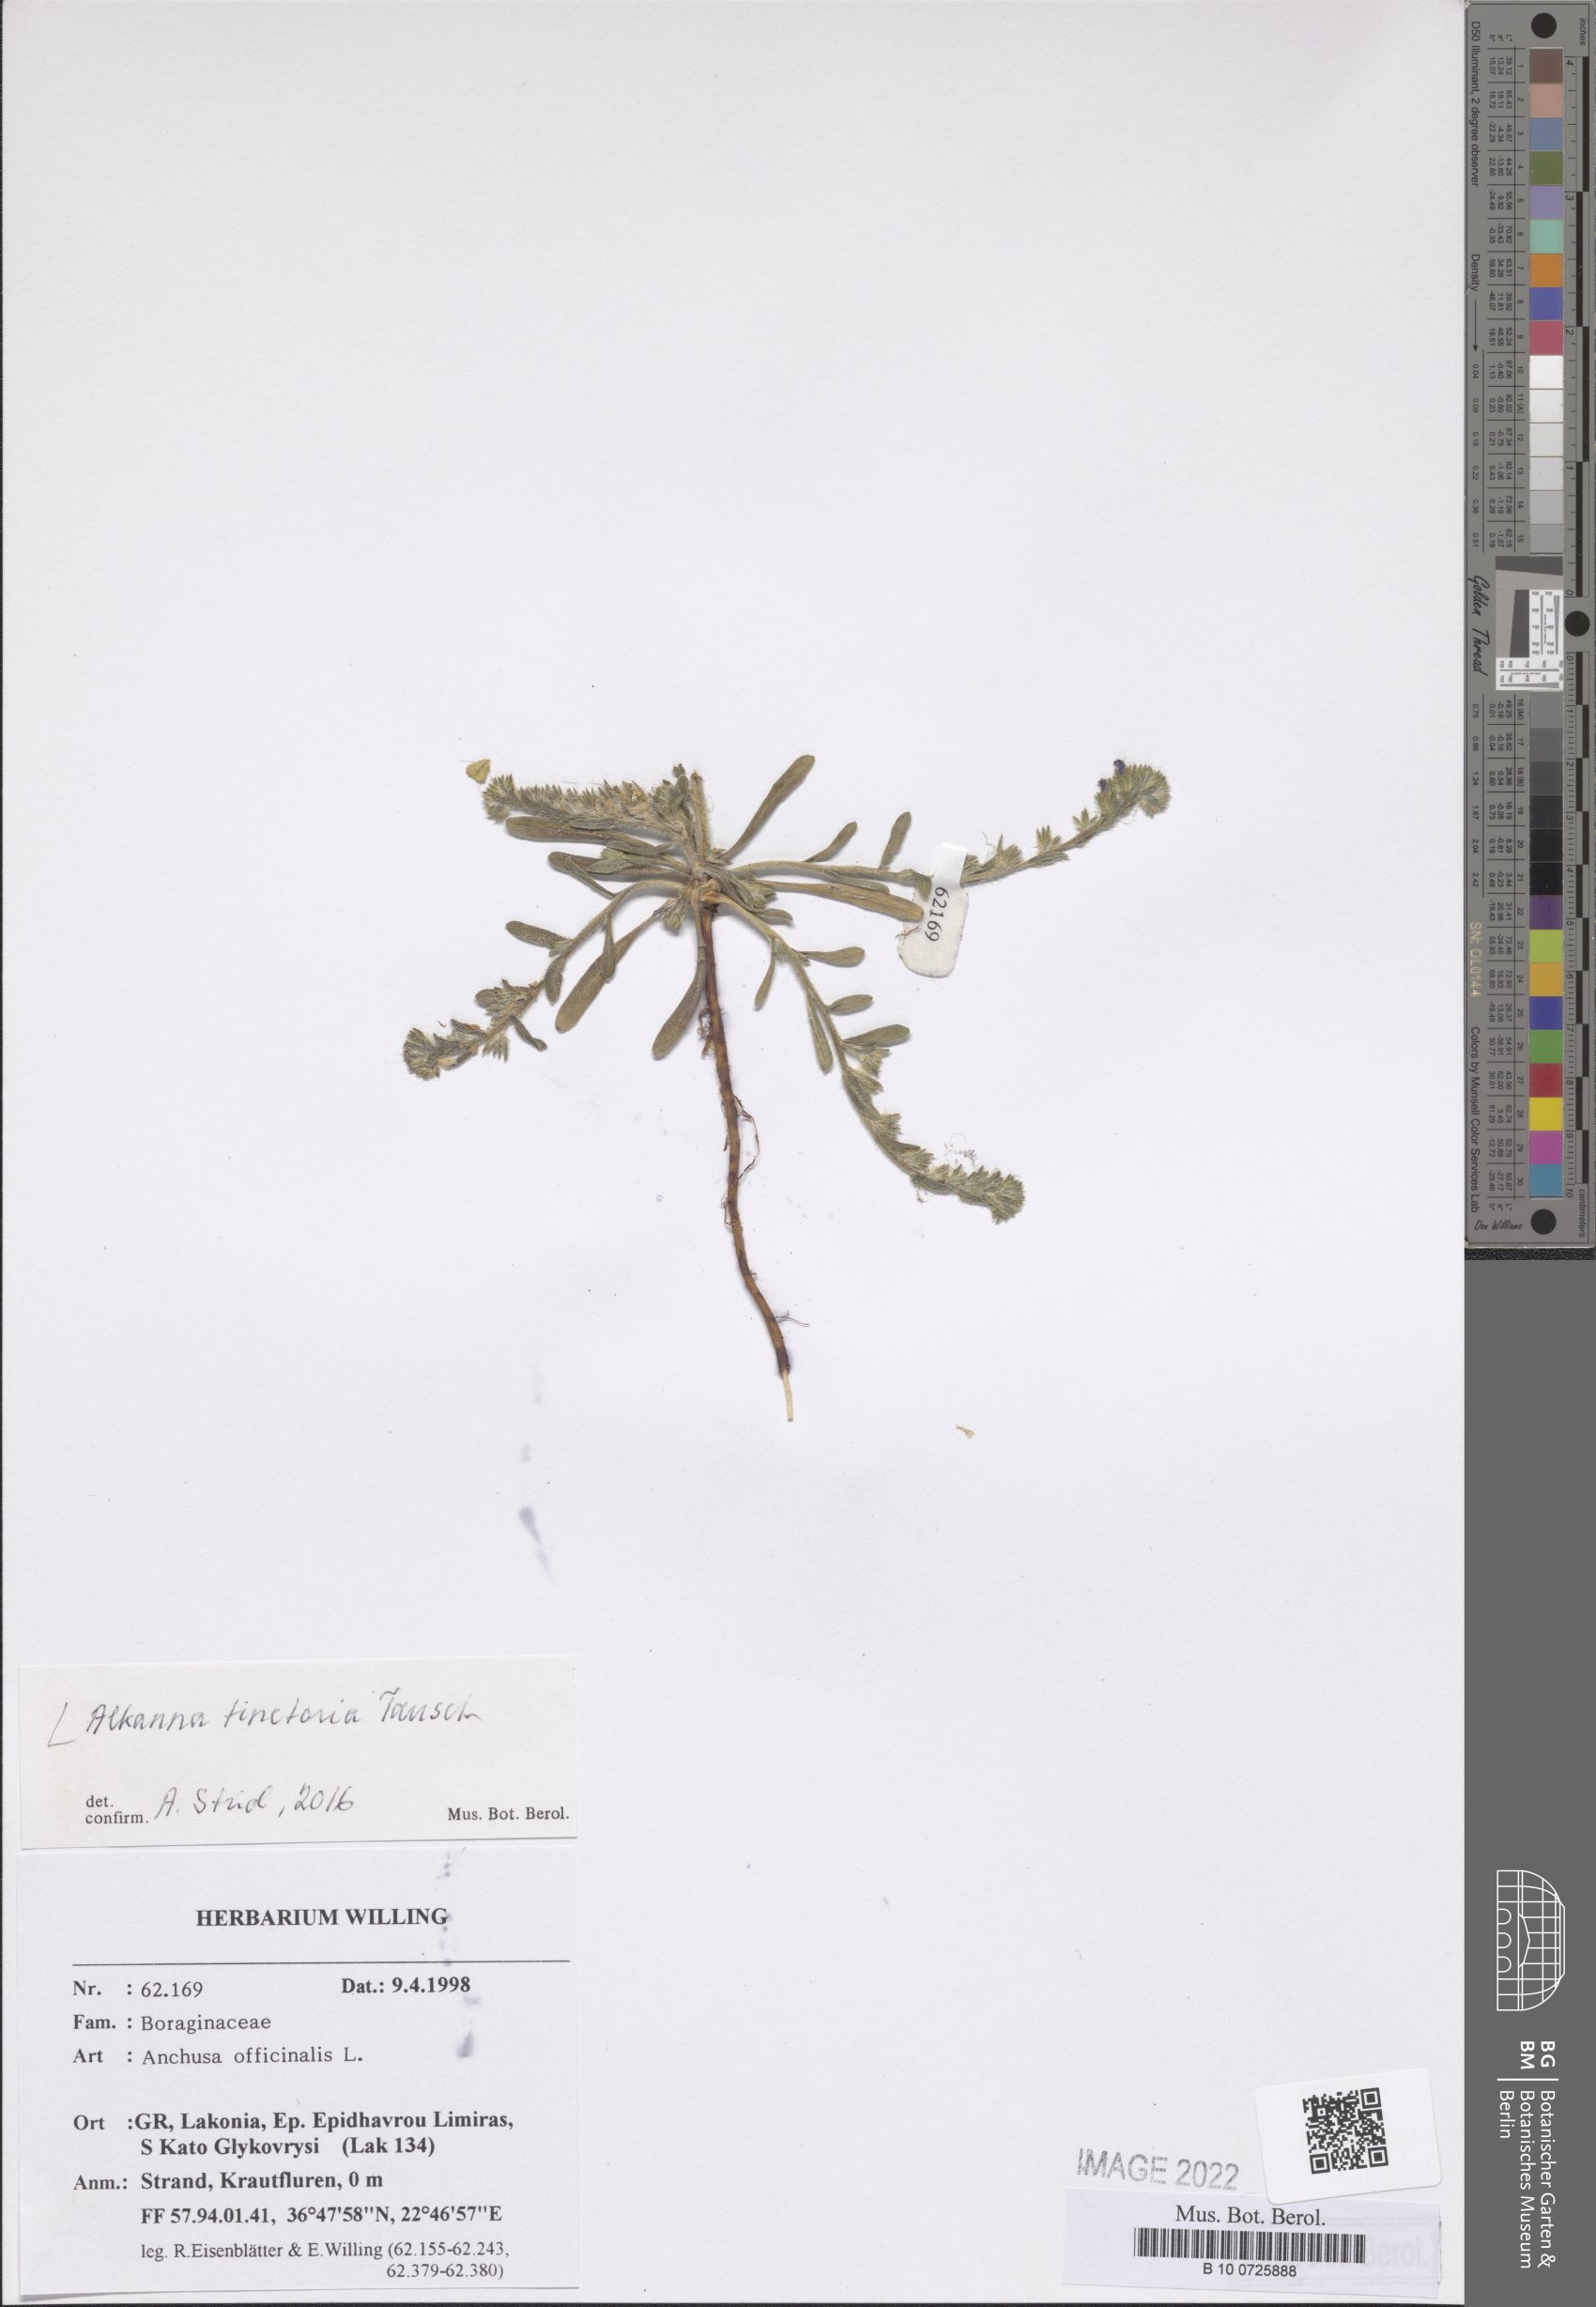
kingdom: Plantae
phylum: Tracheophyta
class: Magnoliopsida
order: Boraginales
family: Boraginaceae
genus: Alkanna
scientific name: Alkanna tinctoria
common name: Dyer's-alkanet
